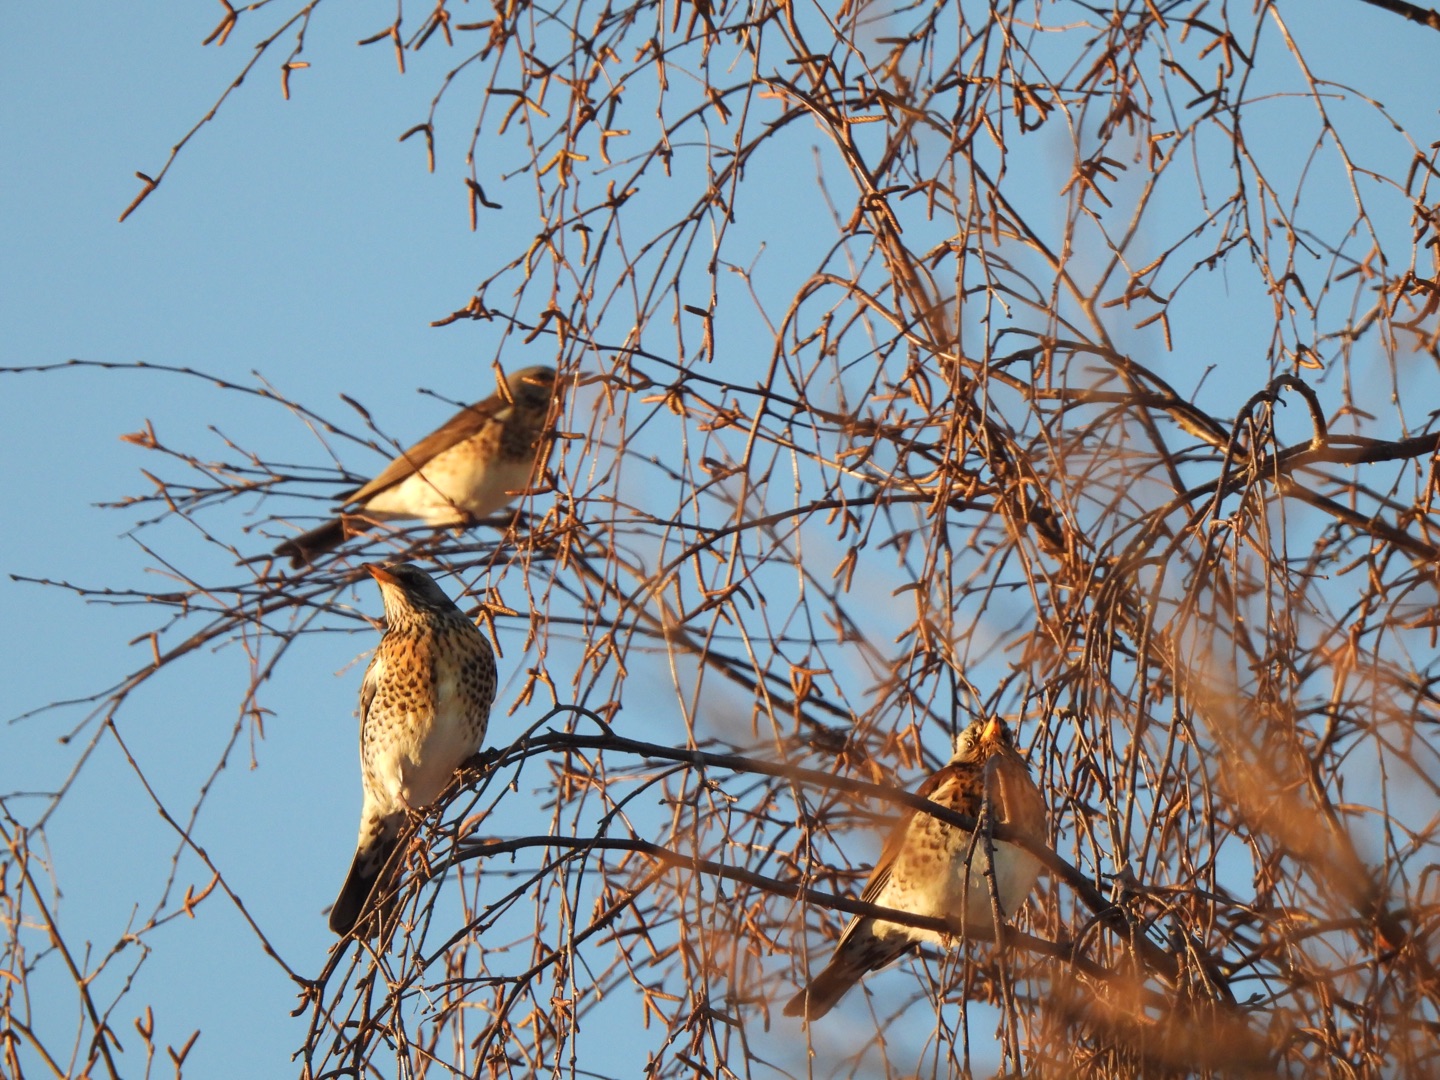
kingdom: Animalia
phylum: Chordata
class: Aves
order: Passeriformes
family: Turdidae
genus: Turdus
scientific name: Turdus pilaris
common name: Sjagger
